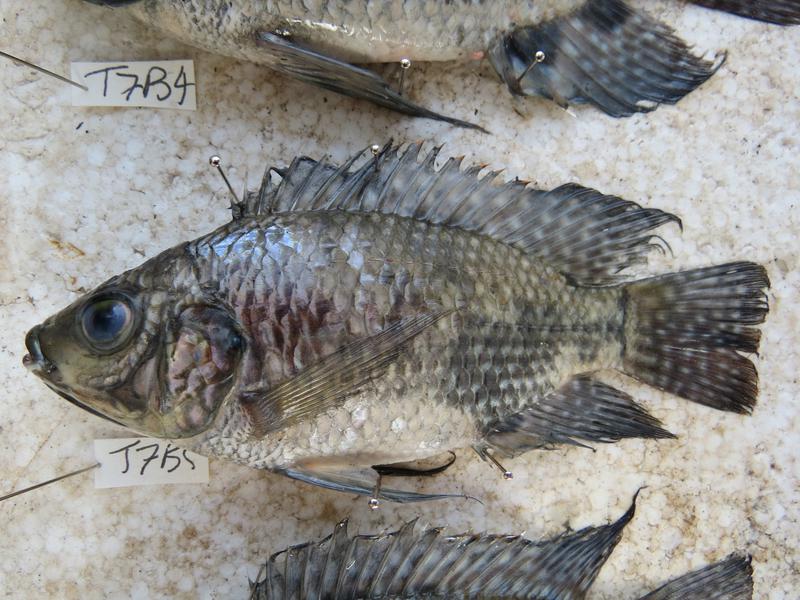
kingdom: Animalia
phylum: Chordata
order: Perciformes
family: Cichlidae
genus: Oreochromis
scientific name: Oreochromis leucostictus
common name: Blue spotted tilapia
